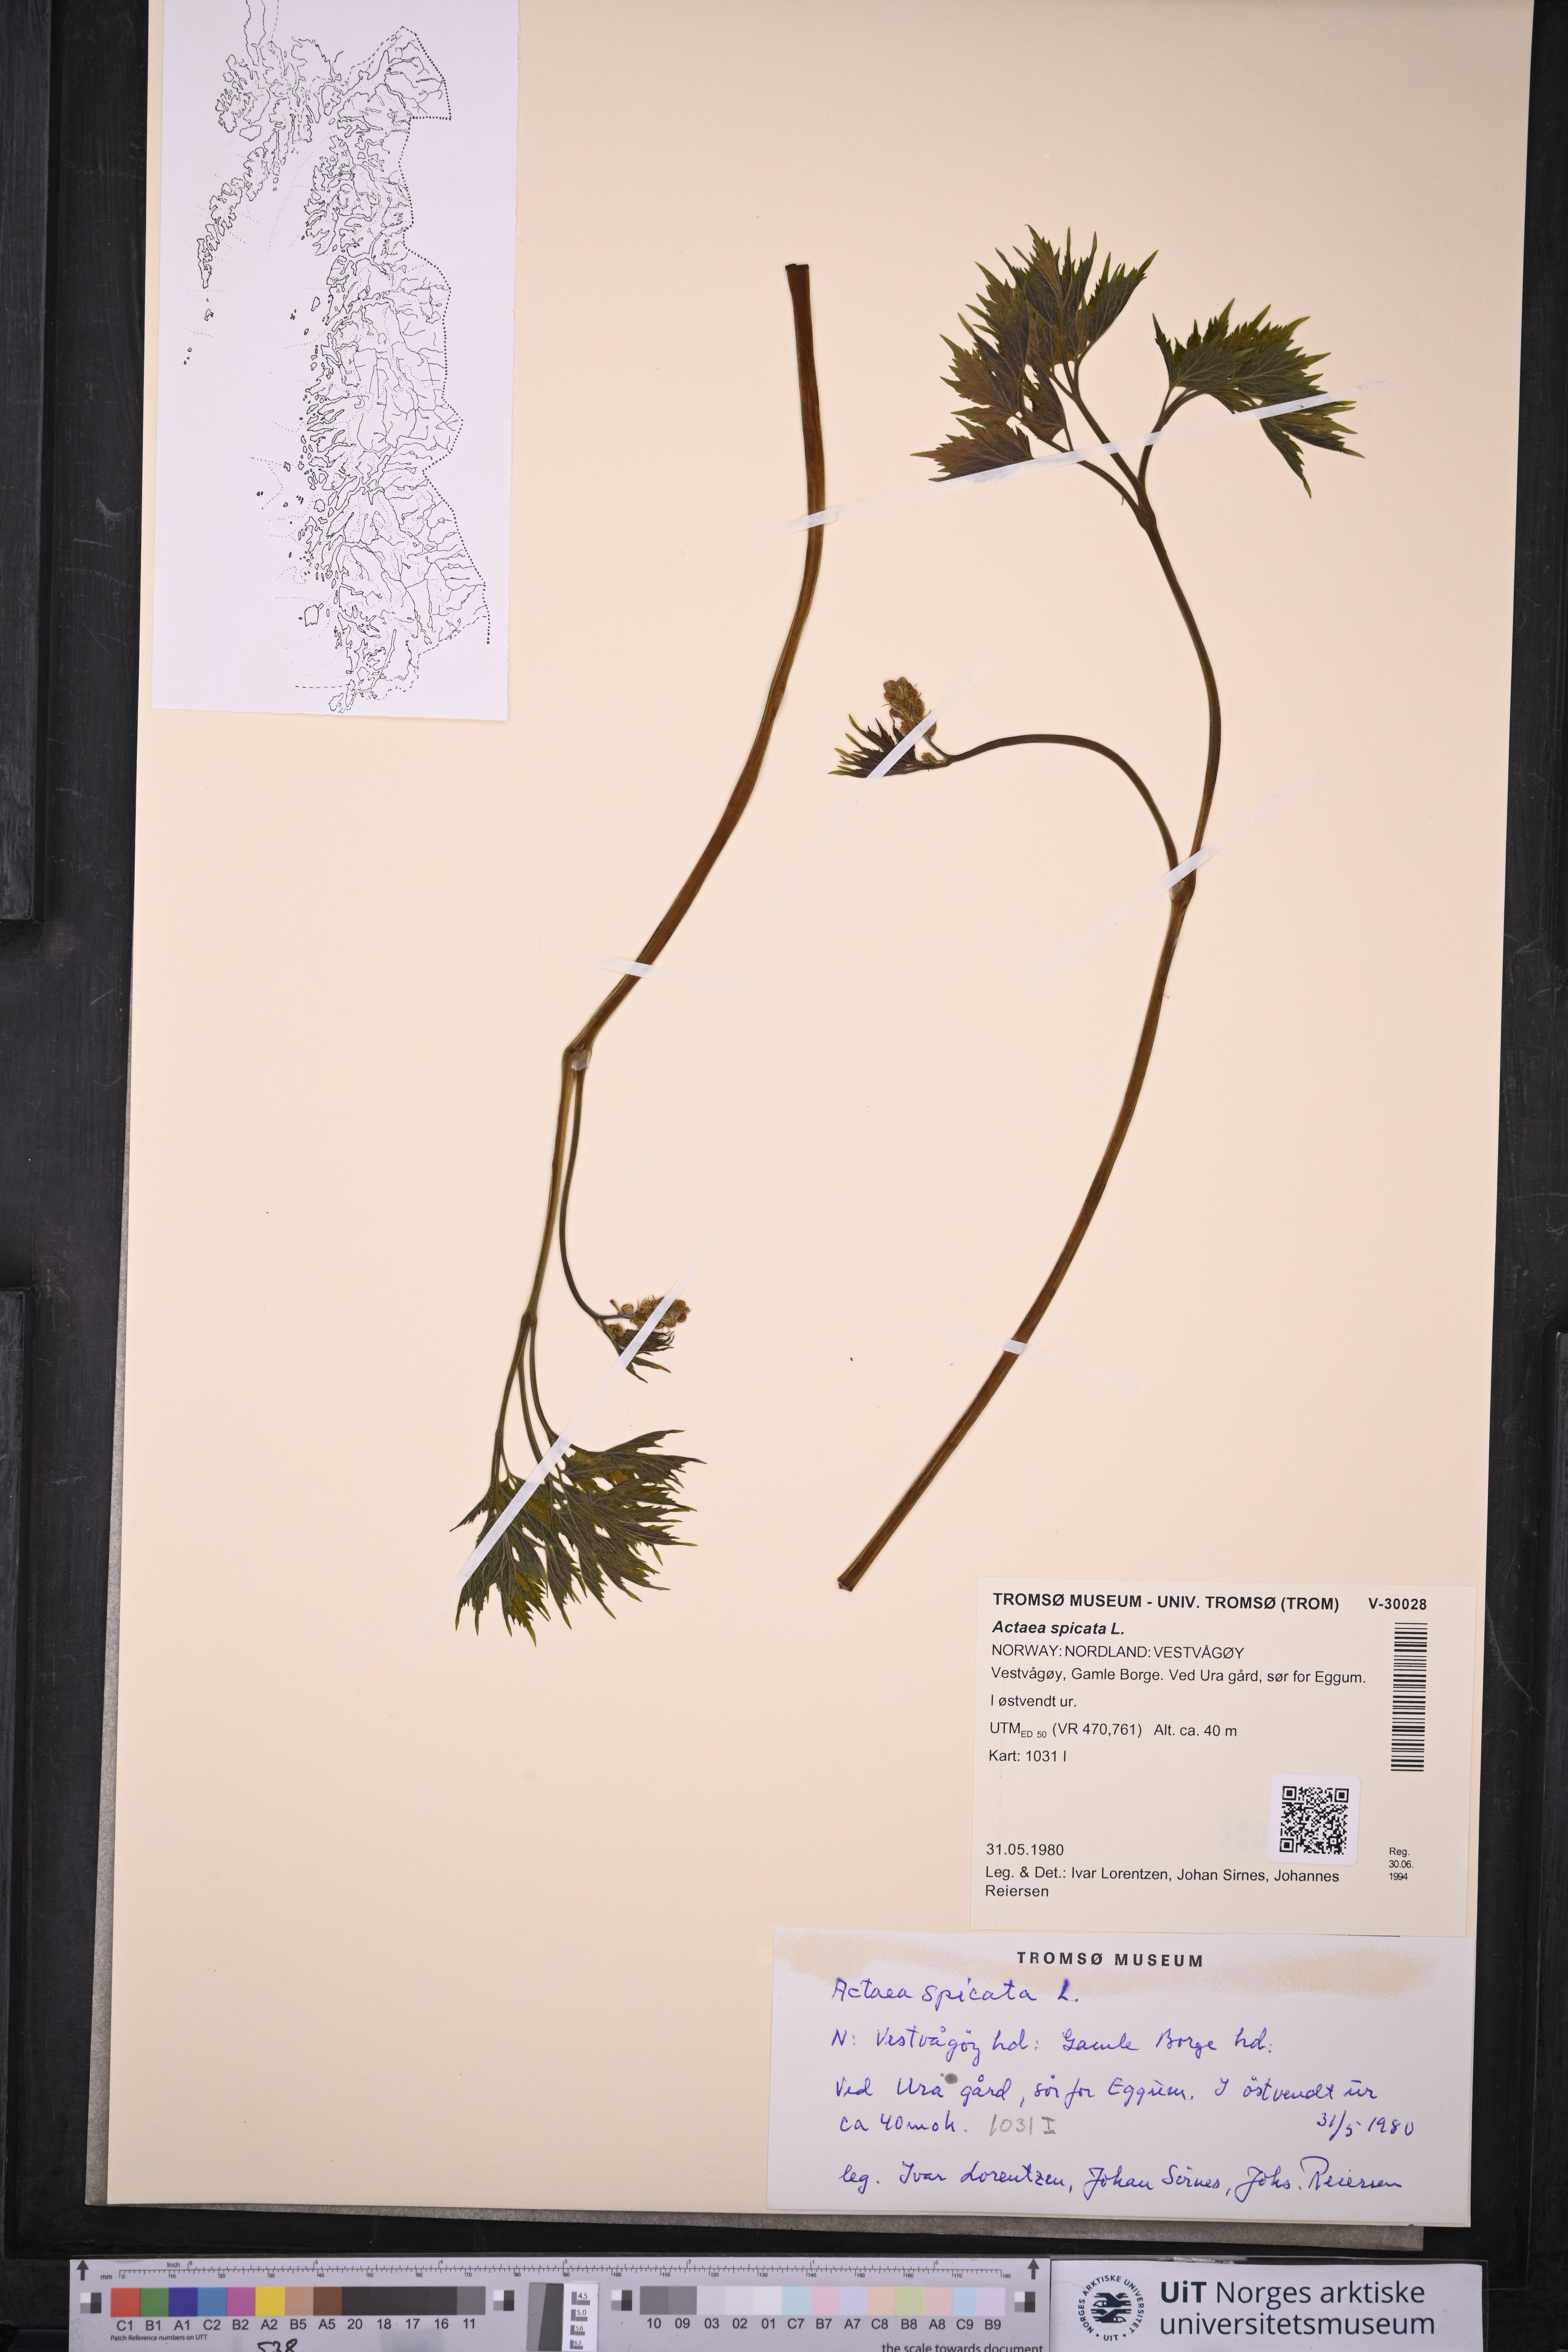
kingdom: Plantae
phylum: Tracheophyta
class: Magnoliopsida
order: Ranunculales
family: Ranunculaceae
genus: Actaea
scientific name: Actaea spicata
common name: Baneberry
